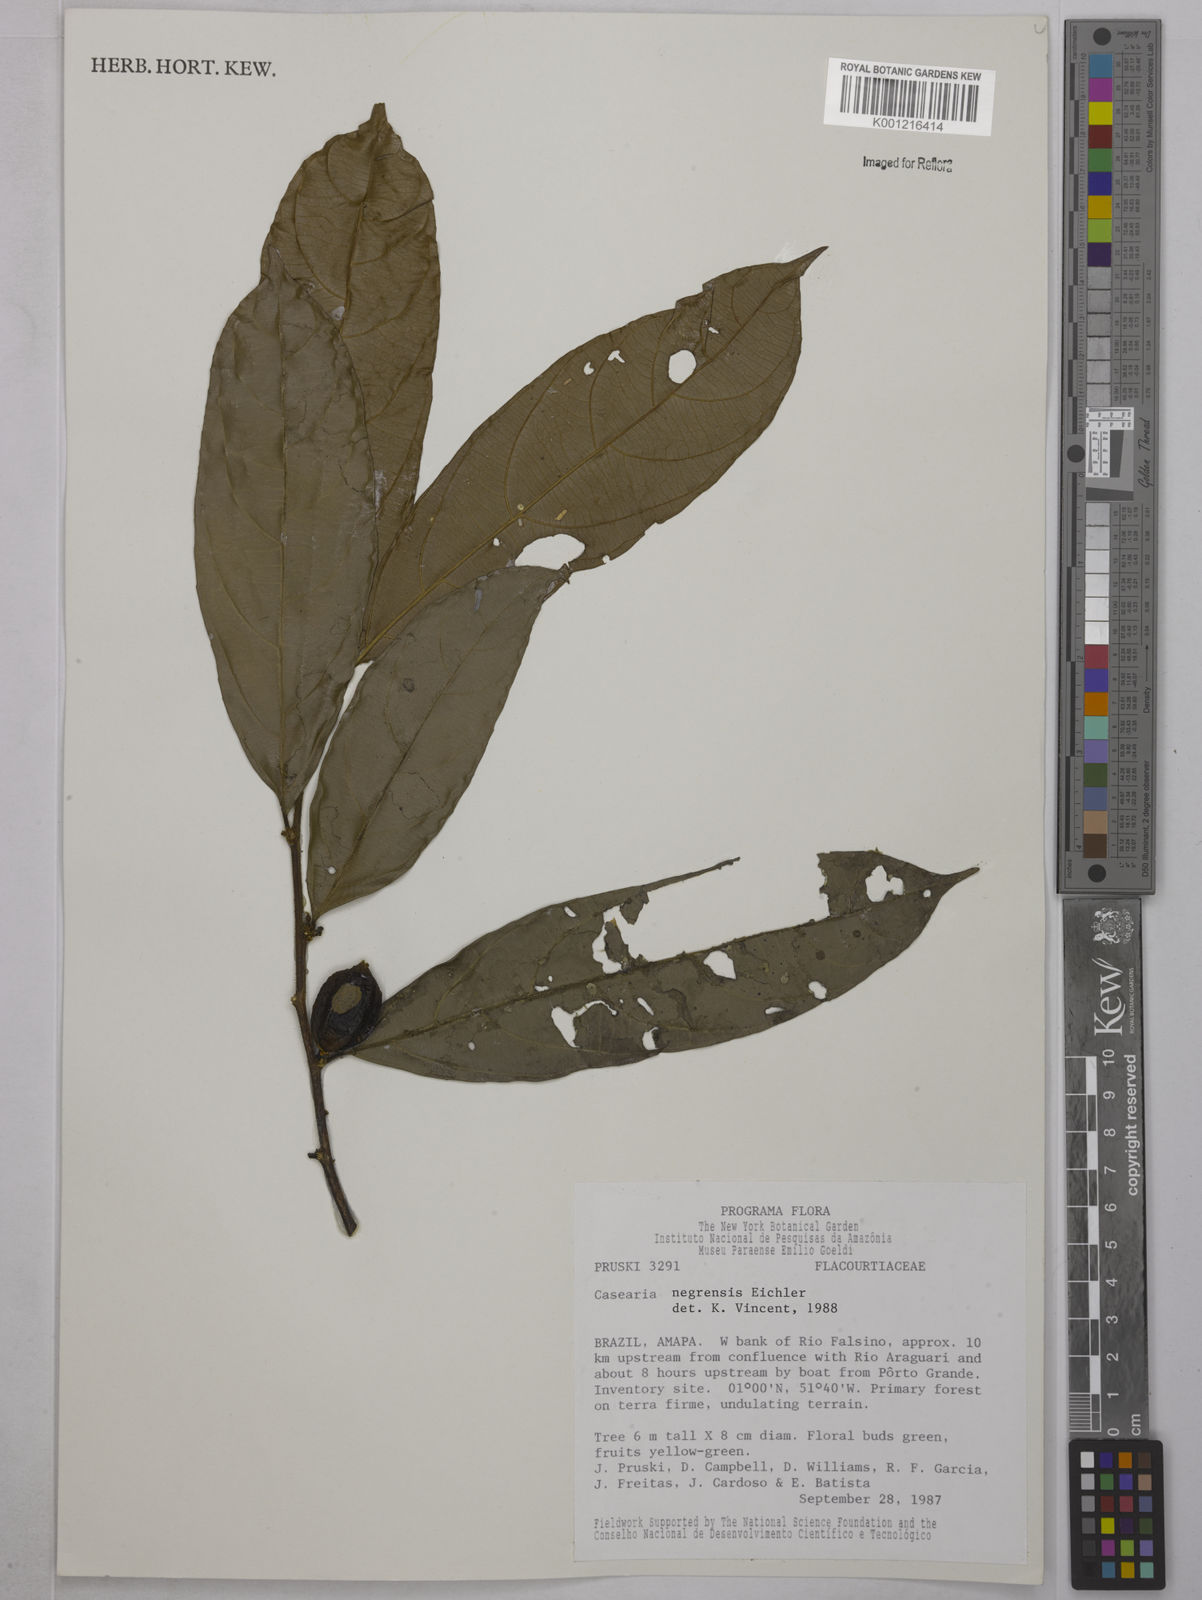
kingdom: Plantae
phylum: Tracheophyta
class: Magnoliopsida
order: Malpighiales
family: Salicaceae
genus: Casearia
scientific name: Casearia negrensis
